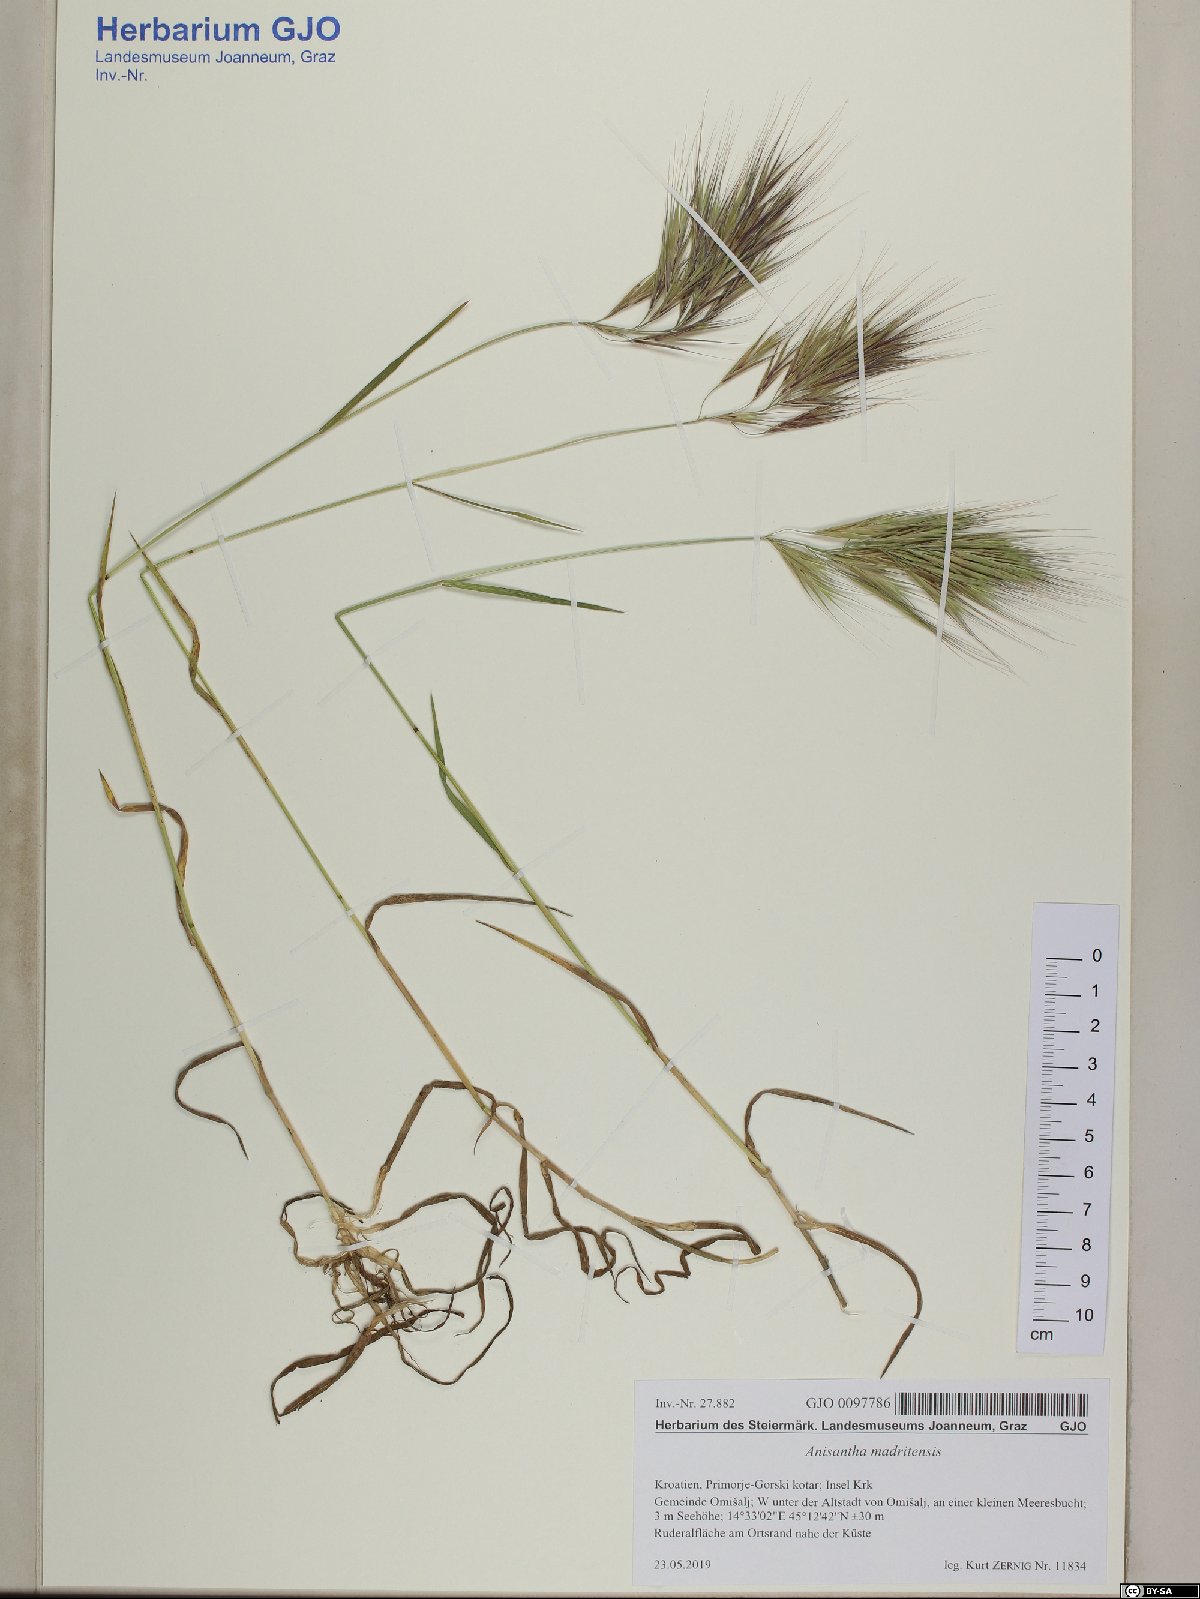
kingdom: Plantae
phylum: Tracheophyta
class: Liliopsida
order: Poales
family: Poaceae
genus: Bromus
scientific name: Bromus madritensis
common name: Compact brome
